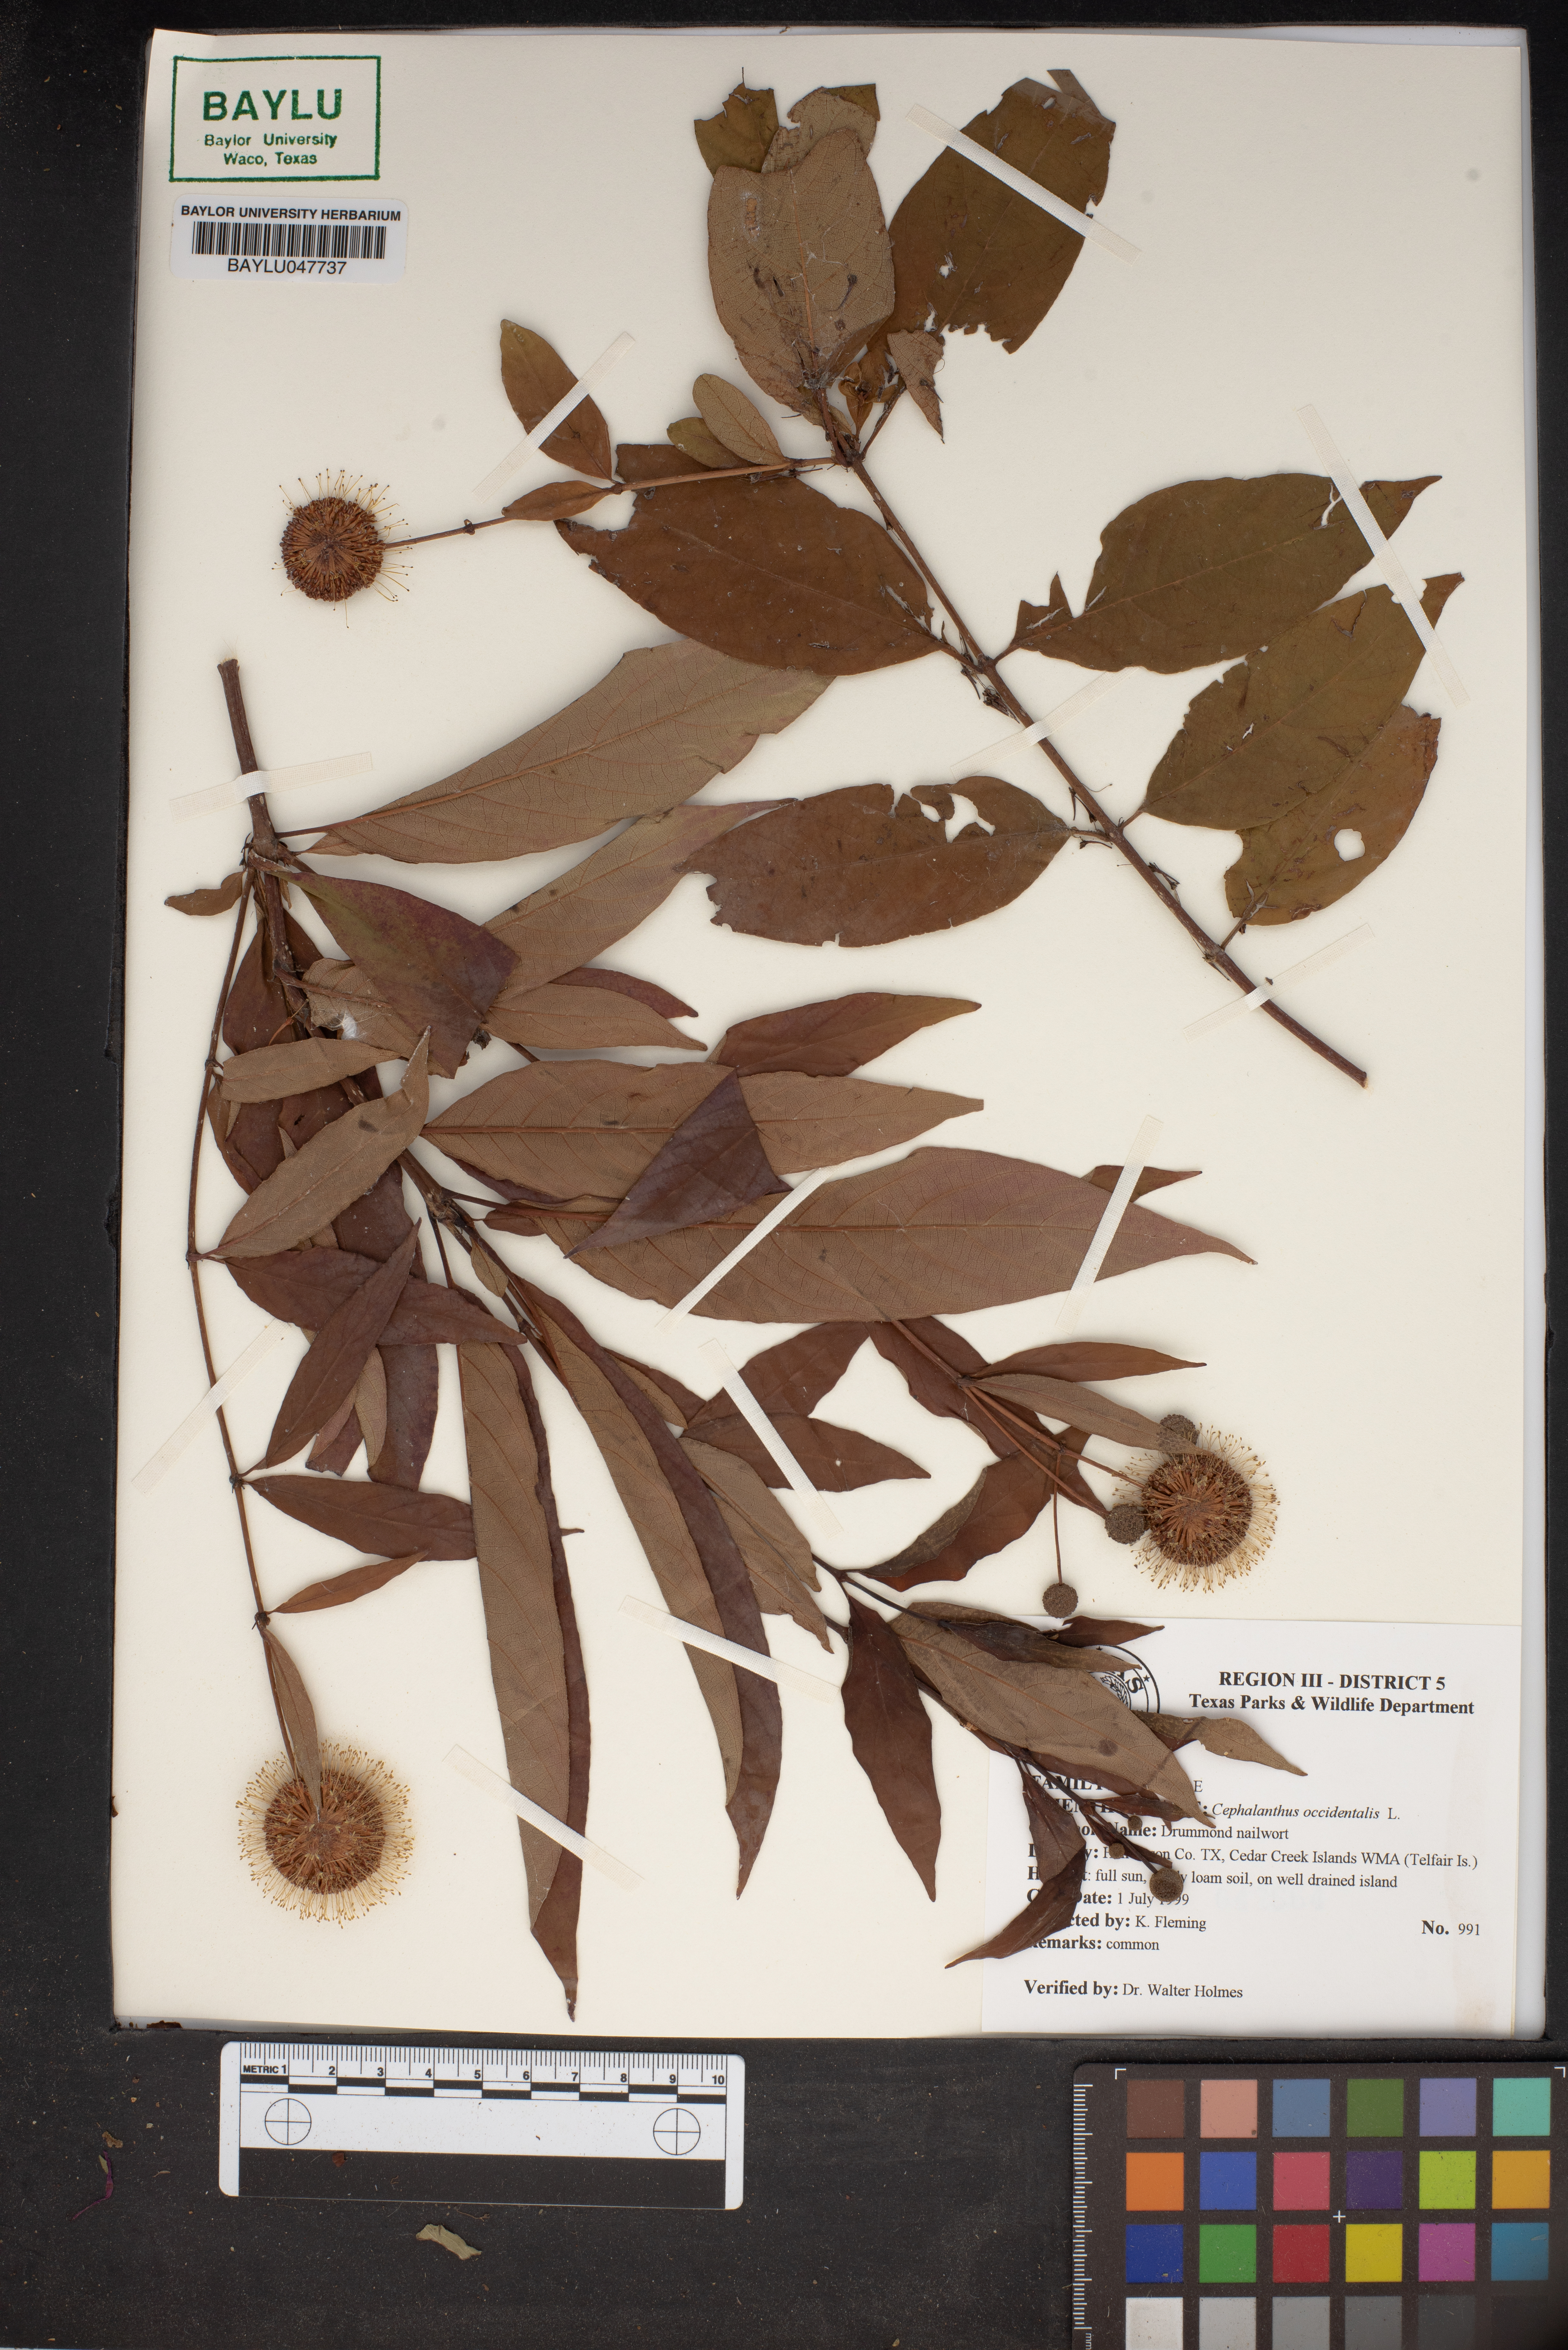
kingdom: Plantae
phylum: Tracheophyta
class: Magnoliopsida
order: Gentianales
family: Rubiaceae
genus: Cephalanthus
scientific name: Cephalanthus occidentalis
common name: Button-willow
